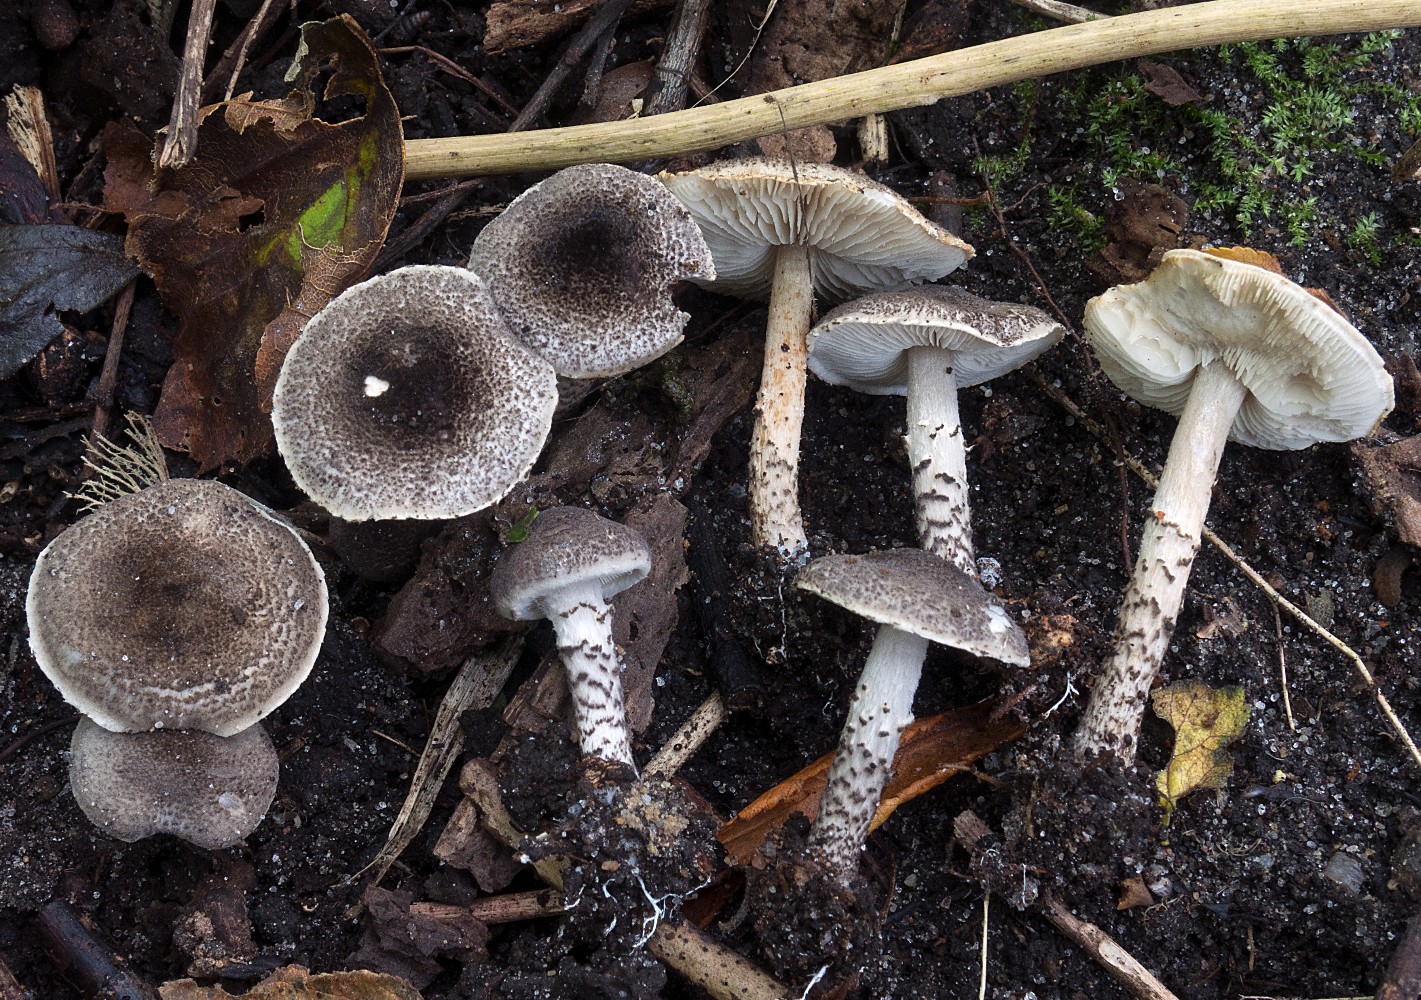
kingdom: Fungi
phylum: Basidiomycota
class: Agaricomycetes
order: Agaricales
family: Agaricaceae
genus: Lepiota
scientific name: Lepiota griseovirens
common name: grågrøn parasolhat
